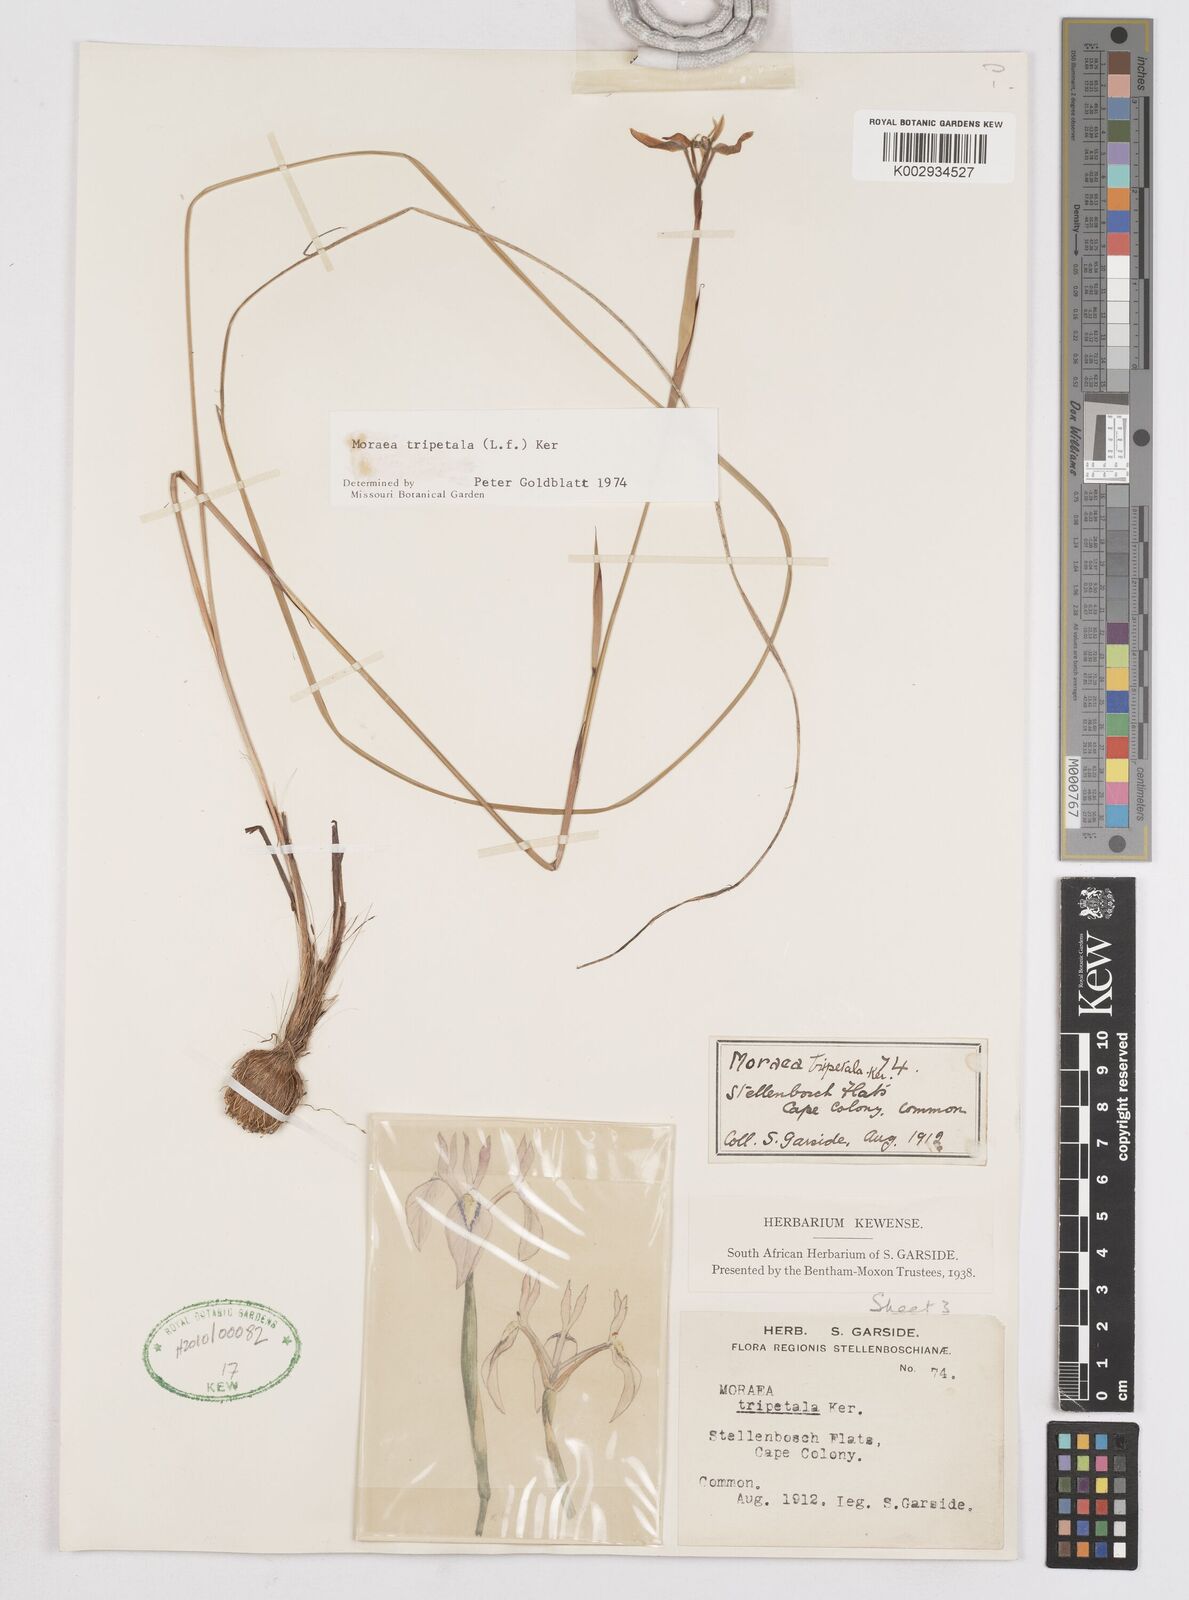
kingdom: Plantae
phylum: Tracheophyta
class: Liliopsida
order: Asparagales
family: Iridaceae
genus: Moraea
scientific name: Moraea tripetala
